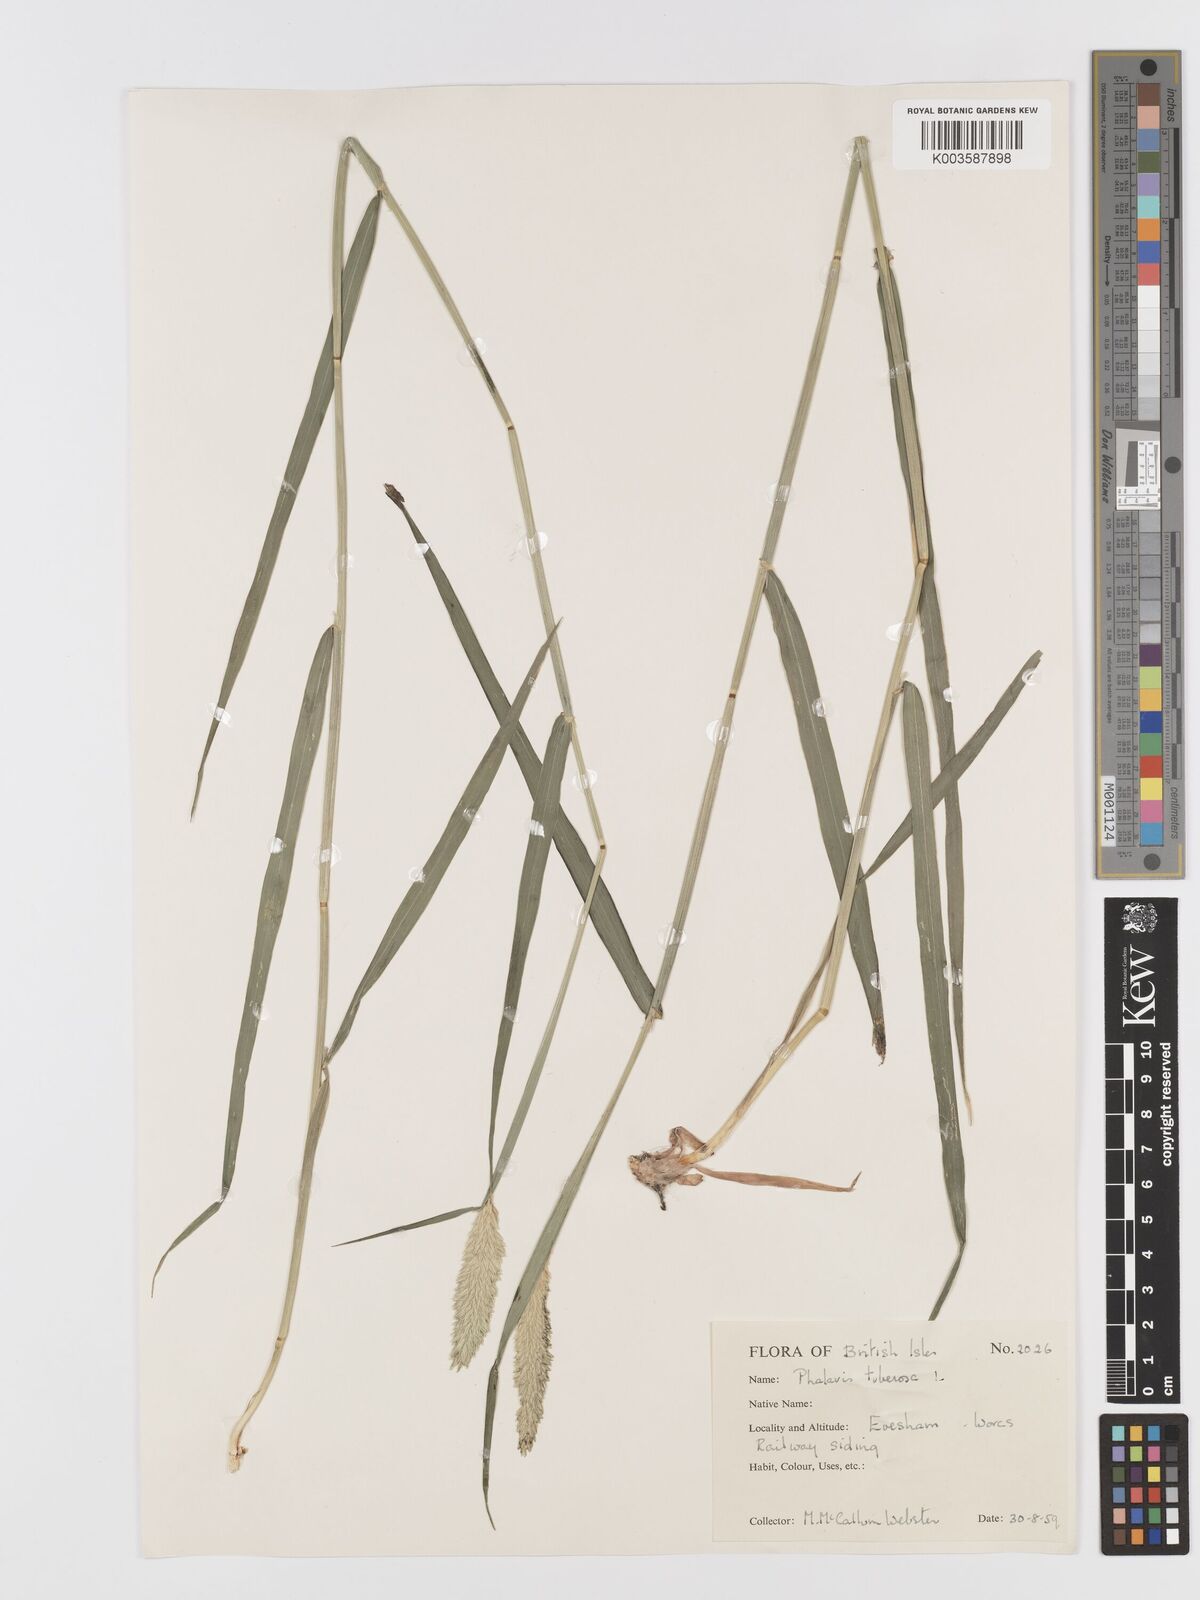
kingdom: Plantae
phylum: Tracheophyta
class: Liliopsida
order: Poales
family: Poaceae
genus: Phalaris
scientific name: Phalaris
